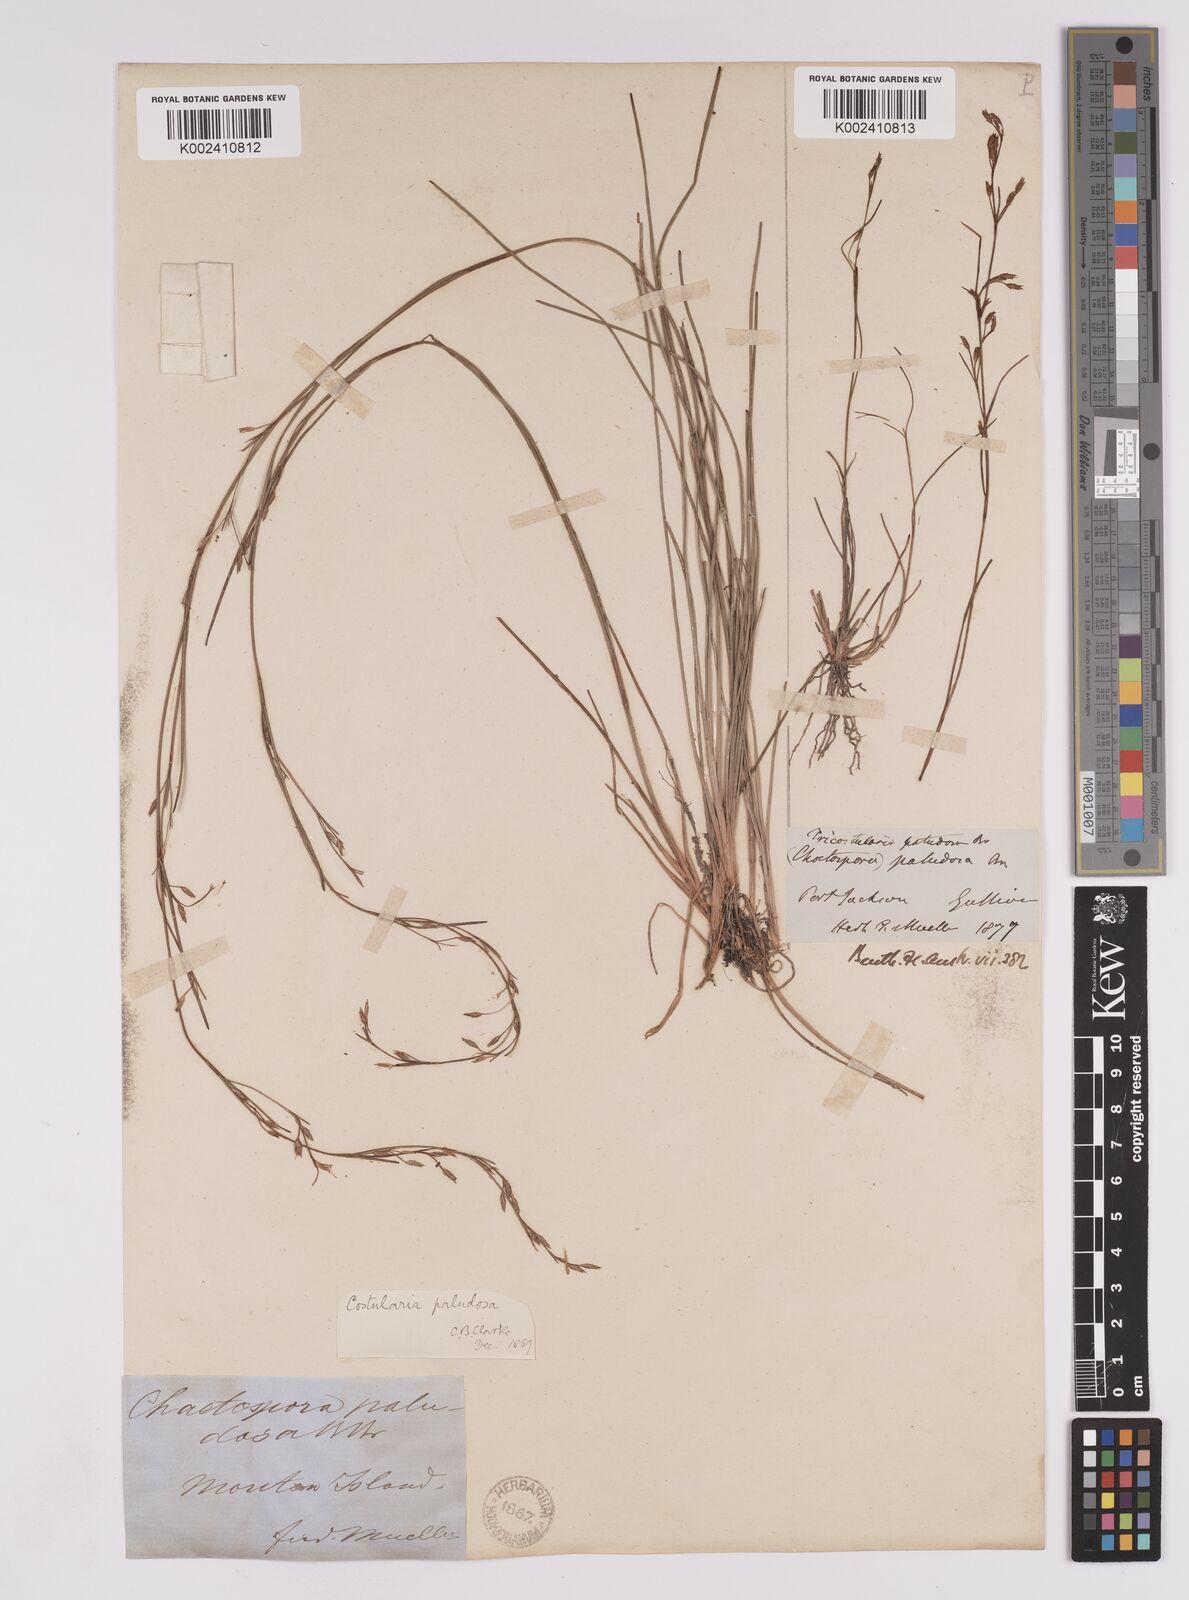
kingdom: Plantae
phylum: Tracheophyta
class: Liliopsida
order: Poales
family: Cyperaceae
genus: Anthelepis
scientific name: Anthelepis paludosa
